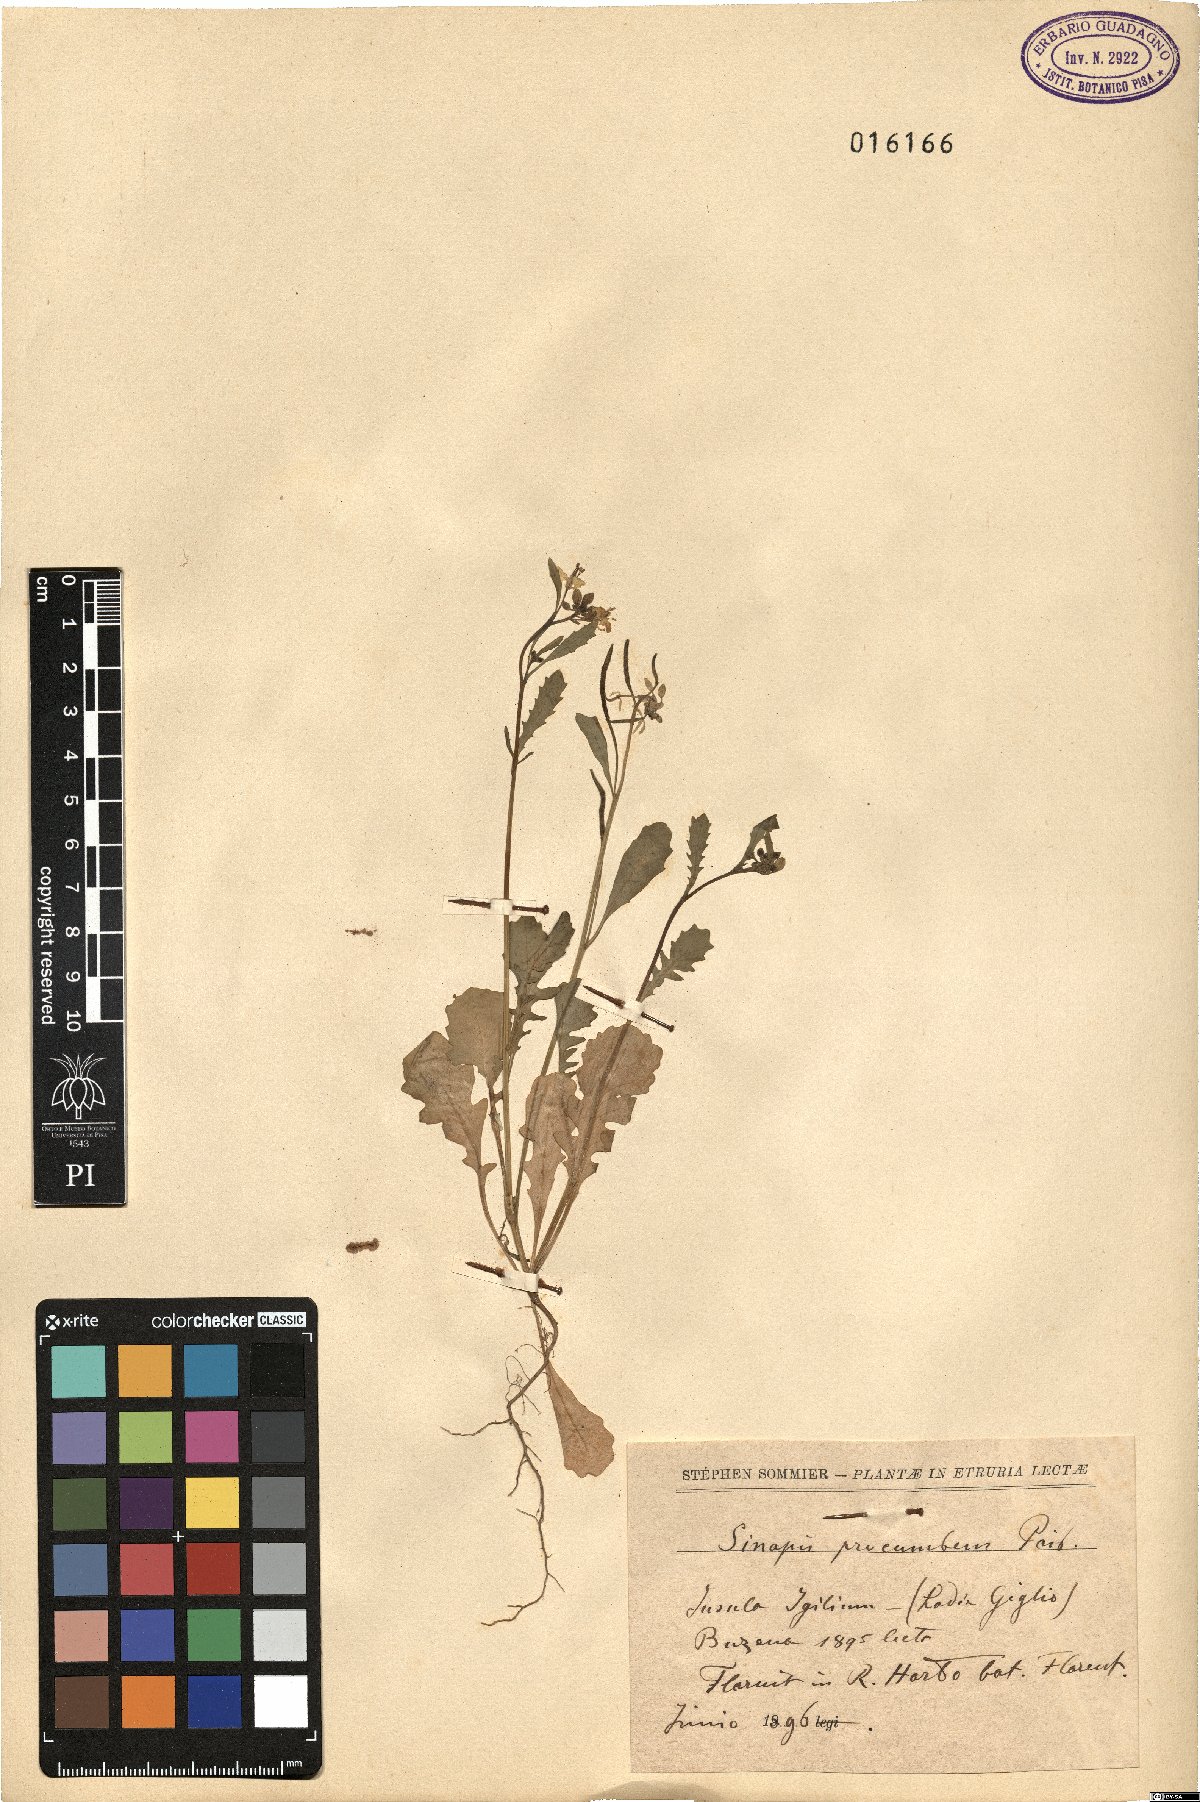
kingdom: Plantae
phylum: Tracheophyta
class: Magnoliopsida
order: Brassicales
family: Brassicaceae
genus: Brassica
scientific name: Brassica procumbens
